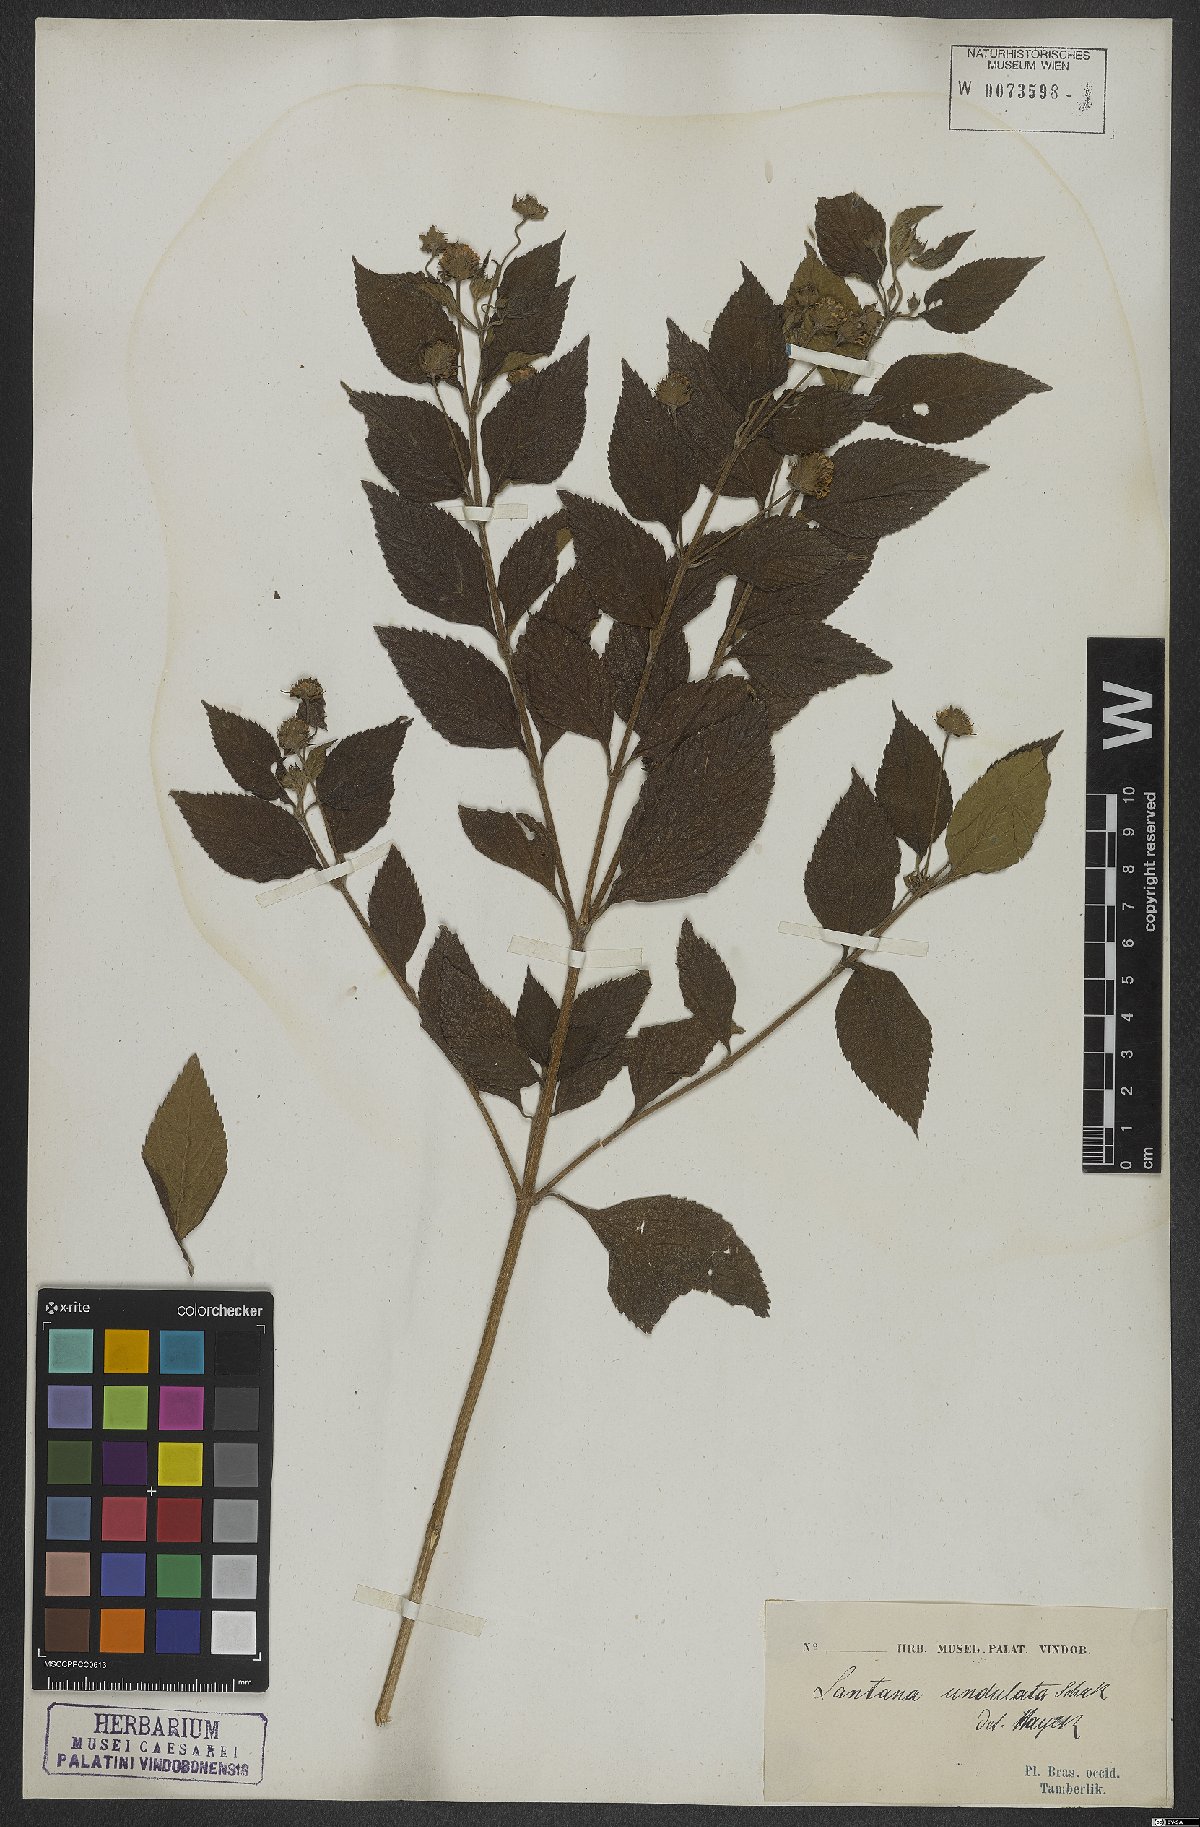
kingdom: Plantae
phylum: Tracheophyta
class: Magnoliopsida
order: Lamiales
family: Verbenaceae
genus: Lantana
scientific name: Lantana undulata
